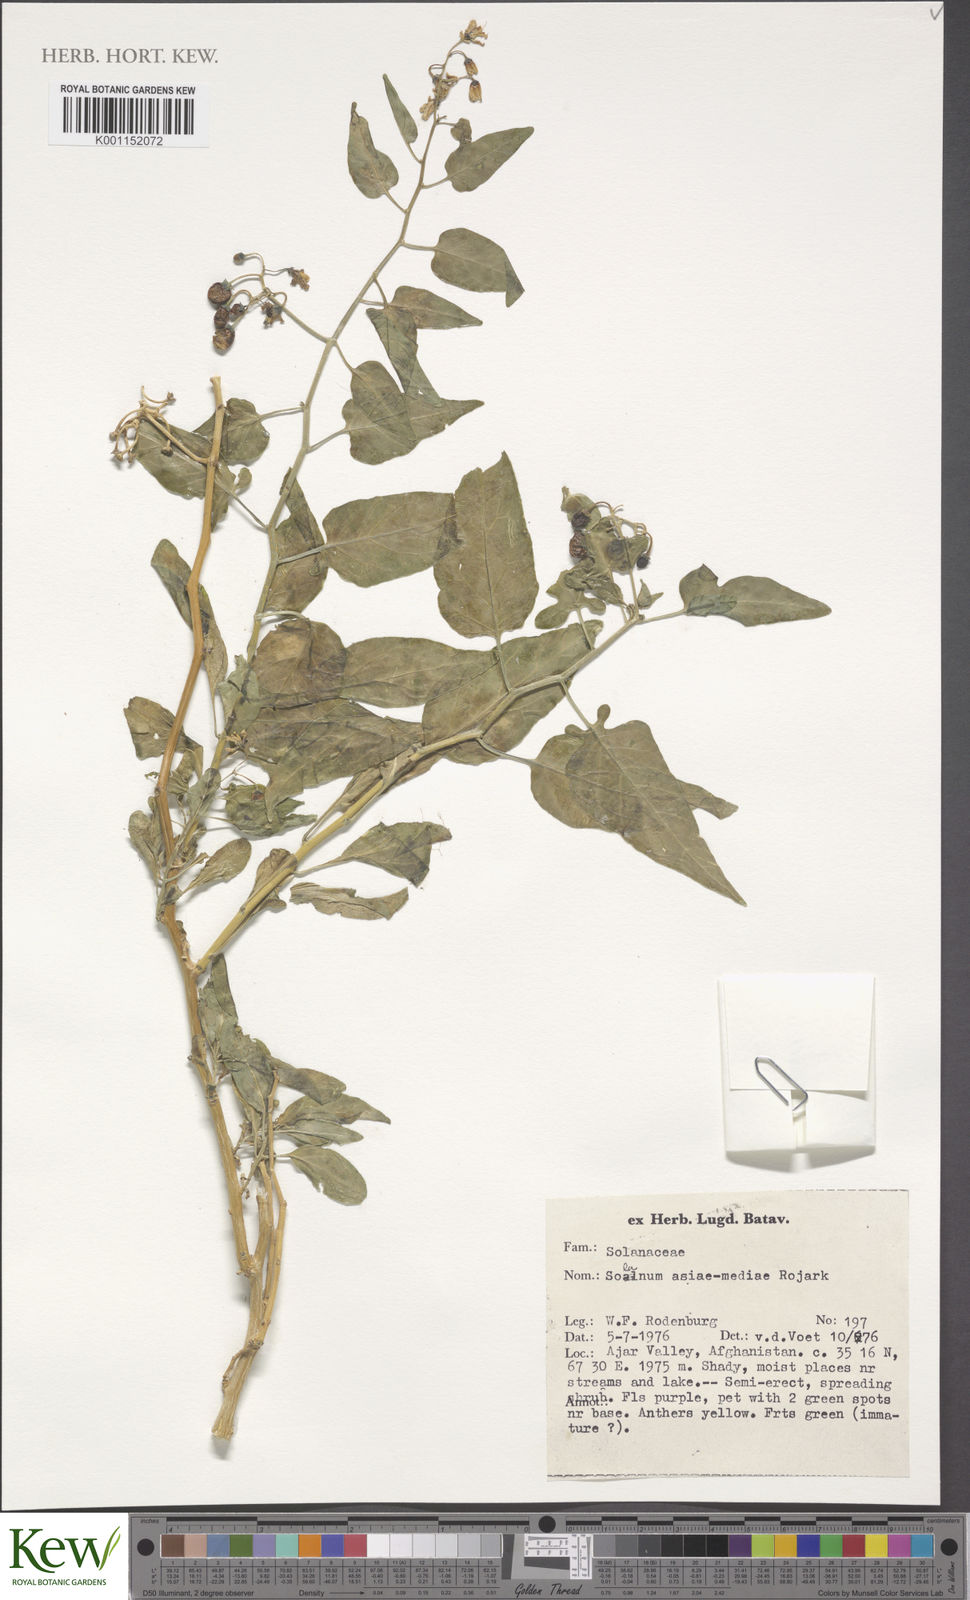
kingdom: Plantae
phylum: Tracheophyta
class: Magnoliopsida
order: Solanales
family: Solanaceae
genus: Solanum
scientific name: Solanum dulcamara
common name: Climbing nightshade
